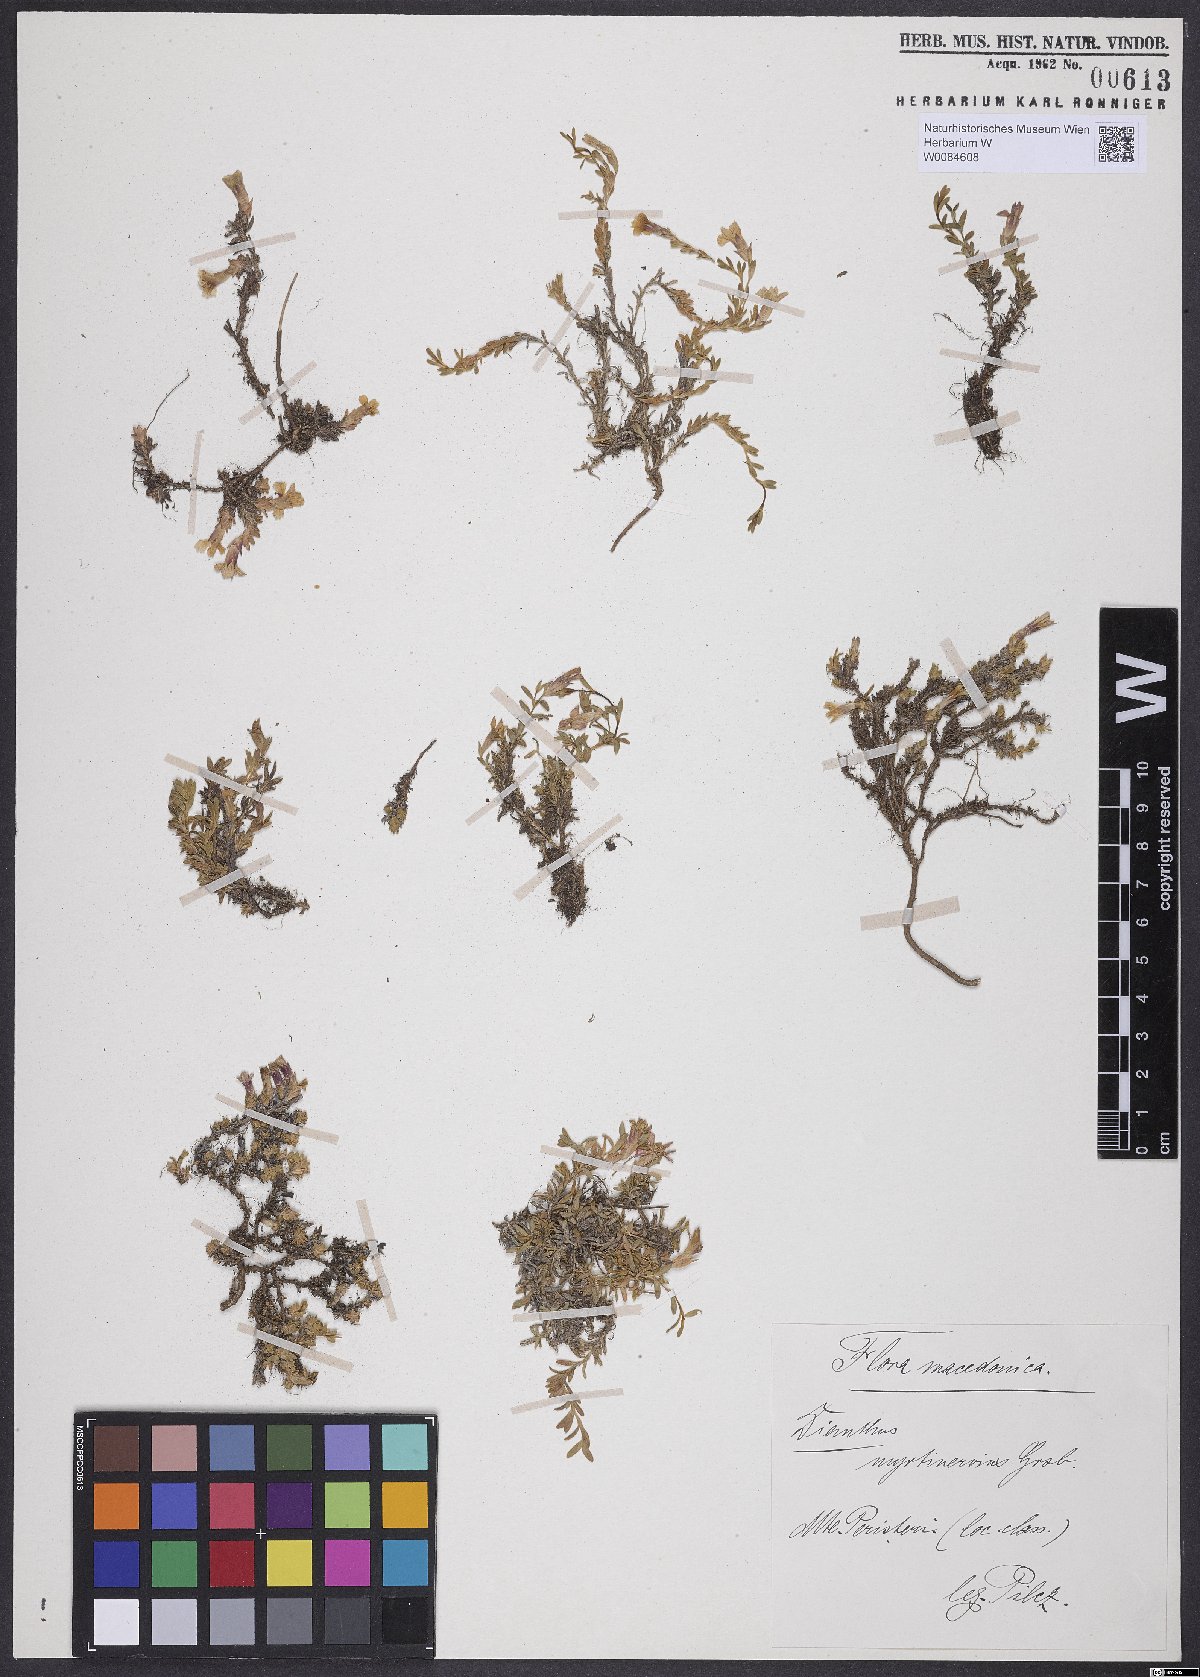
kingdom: Plantae
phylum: Tracheophyta
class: Magnoliopsida
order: Caryophyllales
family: Caryophyllaceae
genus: Dianthus
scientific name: Dianthus myrtinervius
